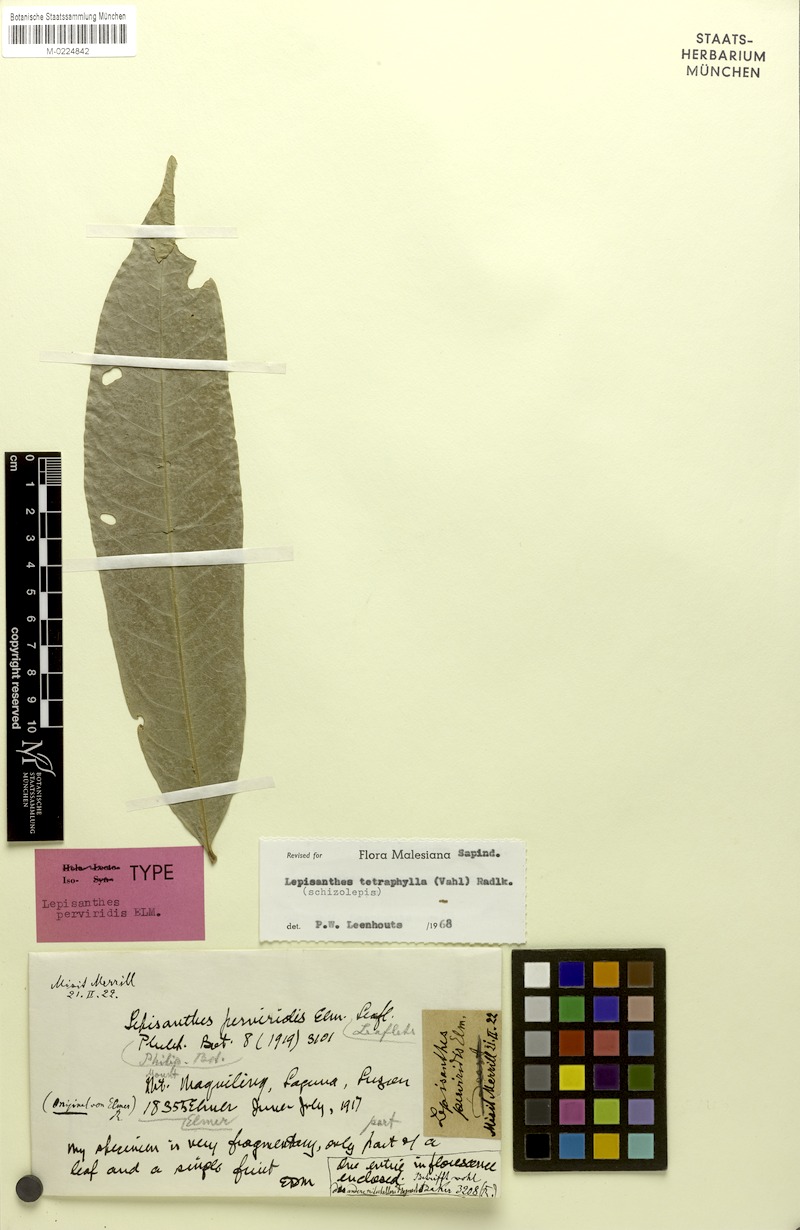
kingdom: Plantae
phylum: Tracheophyta
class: Magnoliopsida
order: Sapindales
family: Sapindaceae
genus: Lepisanthes
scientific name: Lepisanthes tetraphylla
